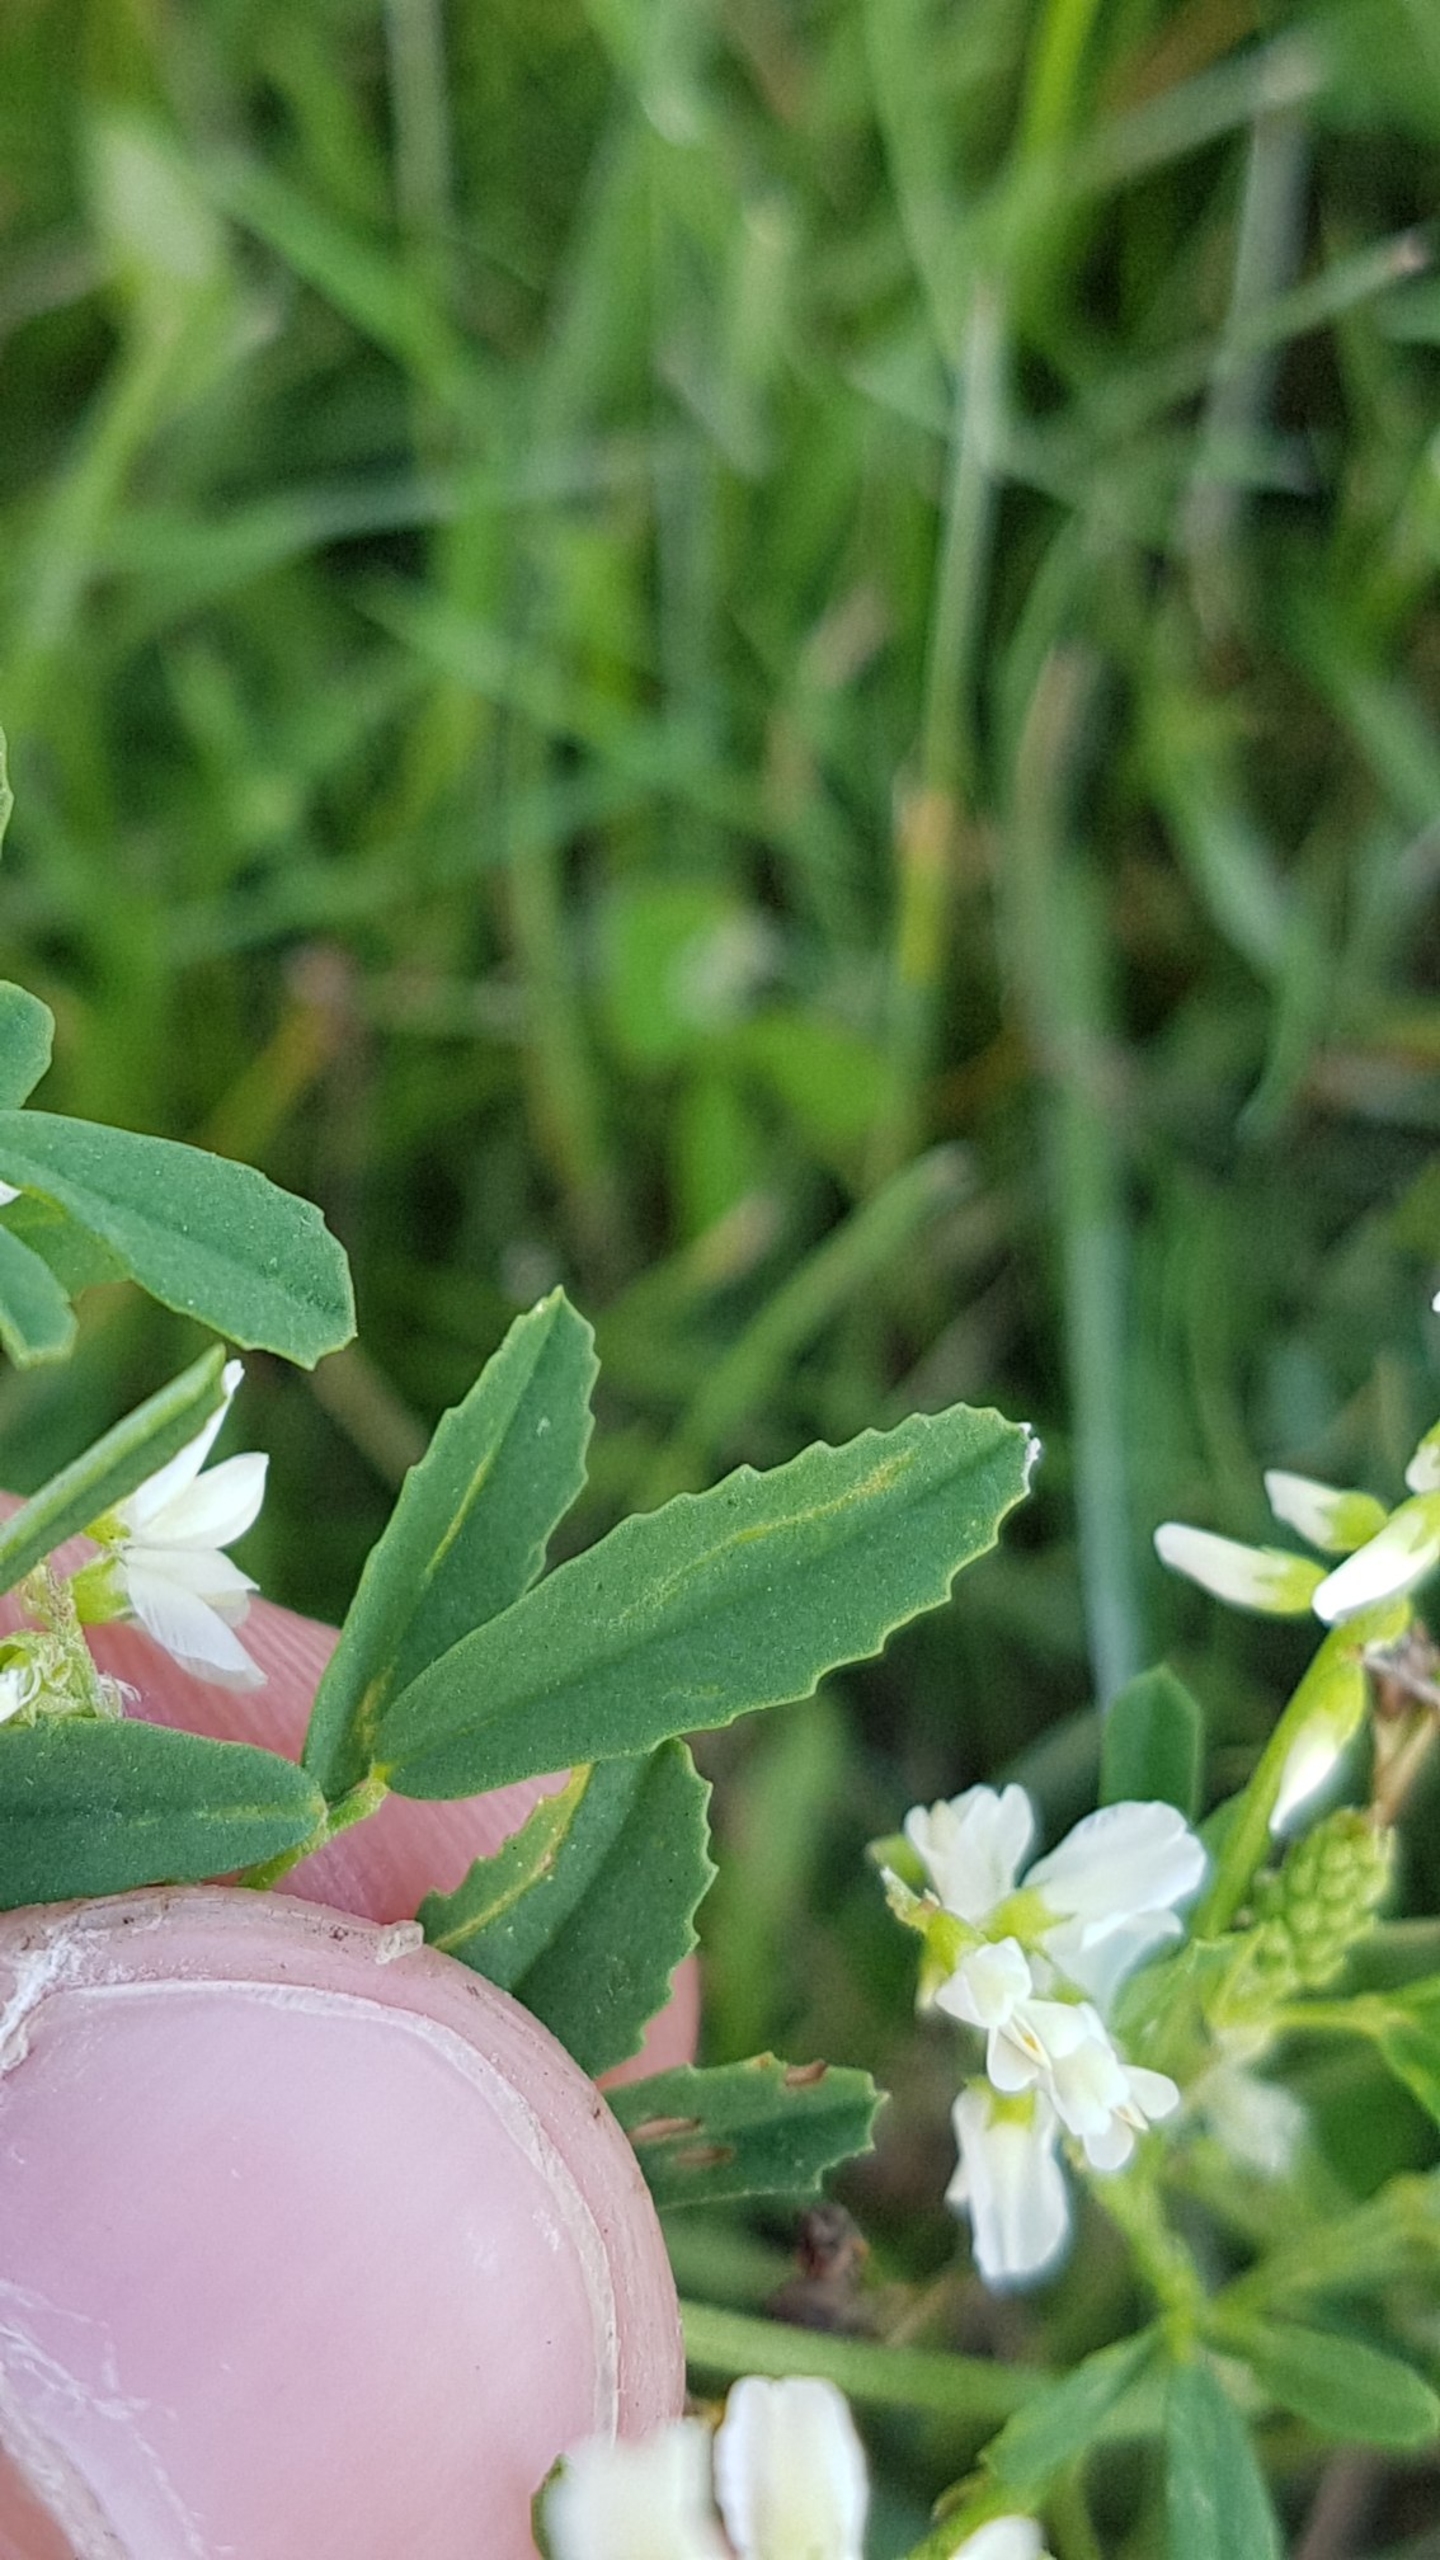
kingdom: Plantae
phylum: Tracheophyta
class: Magnoliopsida
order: Fabales
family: Fabaceae
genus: Melilotus
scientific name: Melilotus albus
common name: Hvid stenkløver
